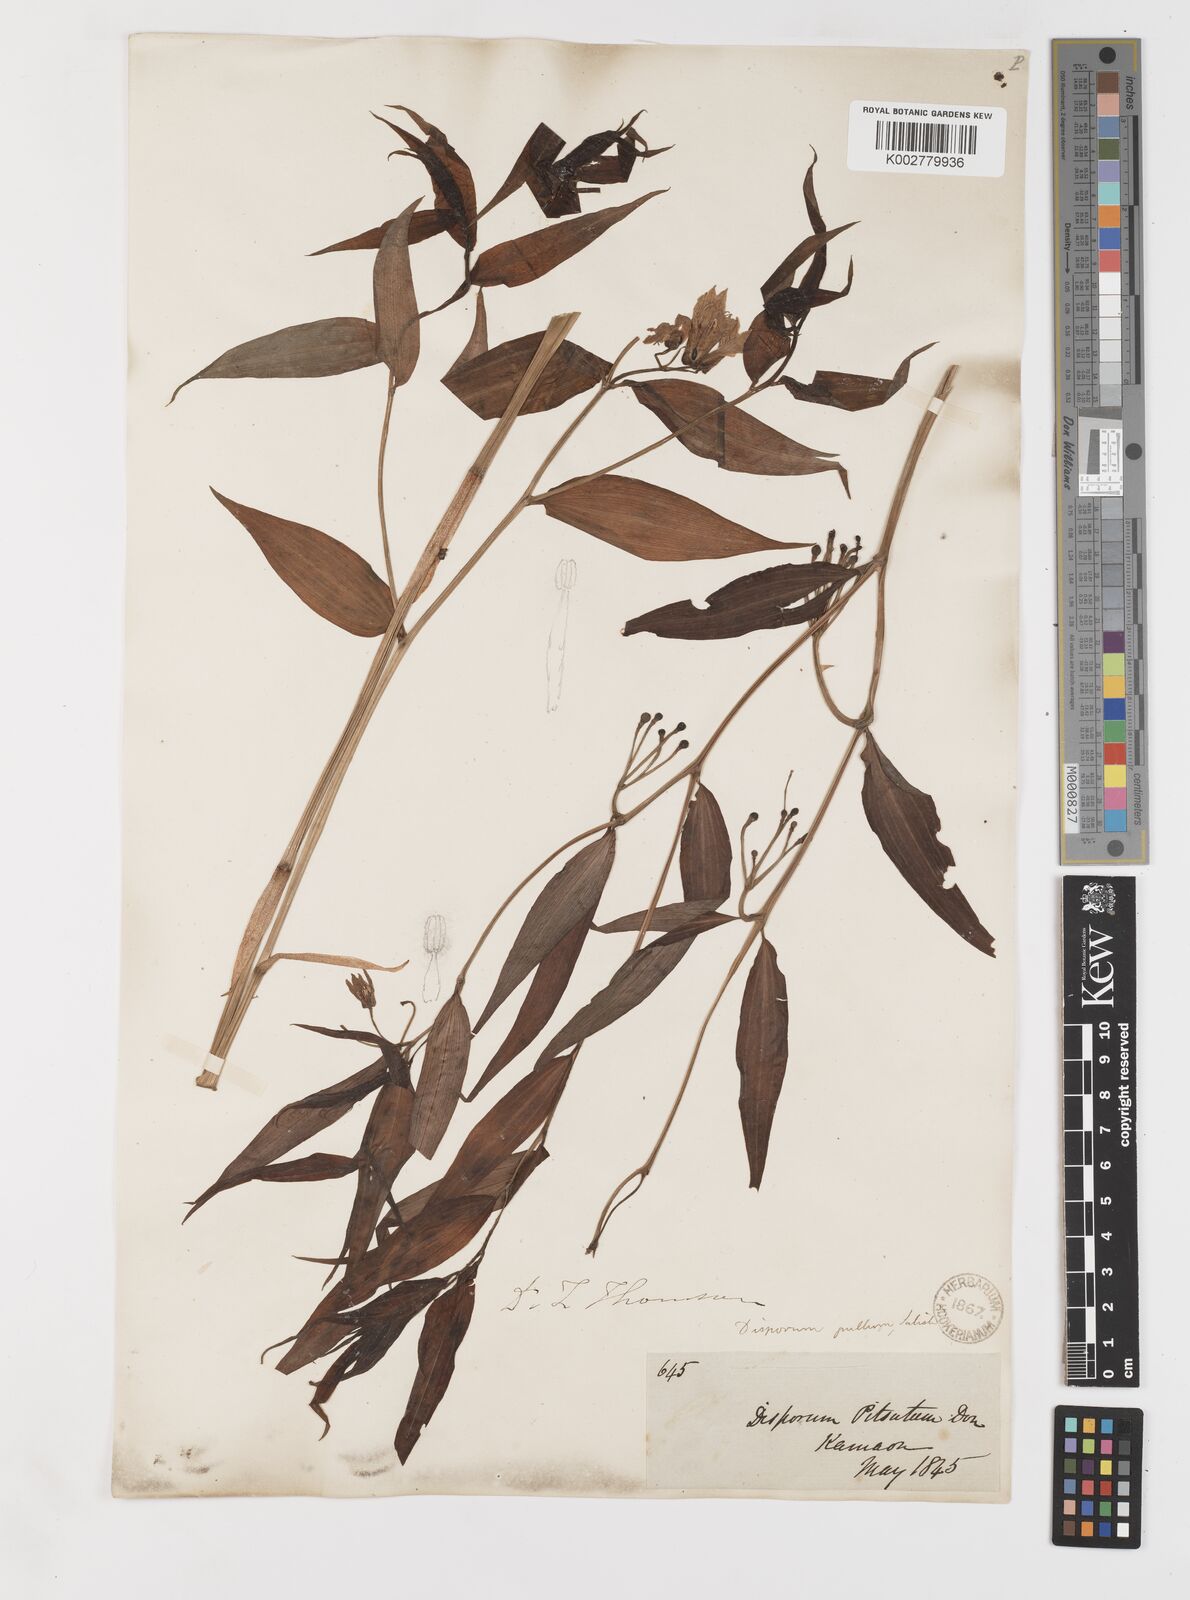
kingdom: Plantae
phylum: Tracheophyta
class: Liliopsida
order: Liliales
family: Colchicaceae
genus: Disporum
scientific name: Disporum cantoniense
